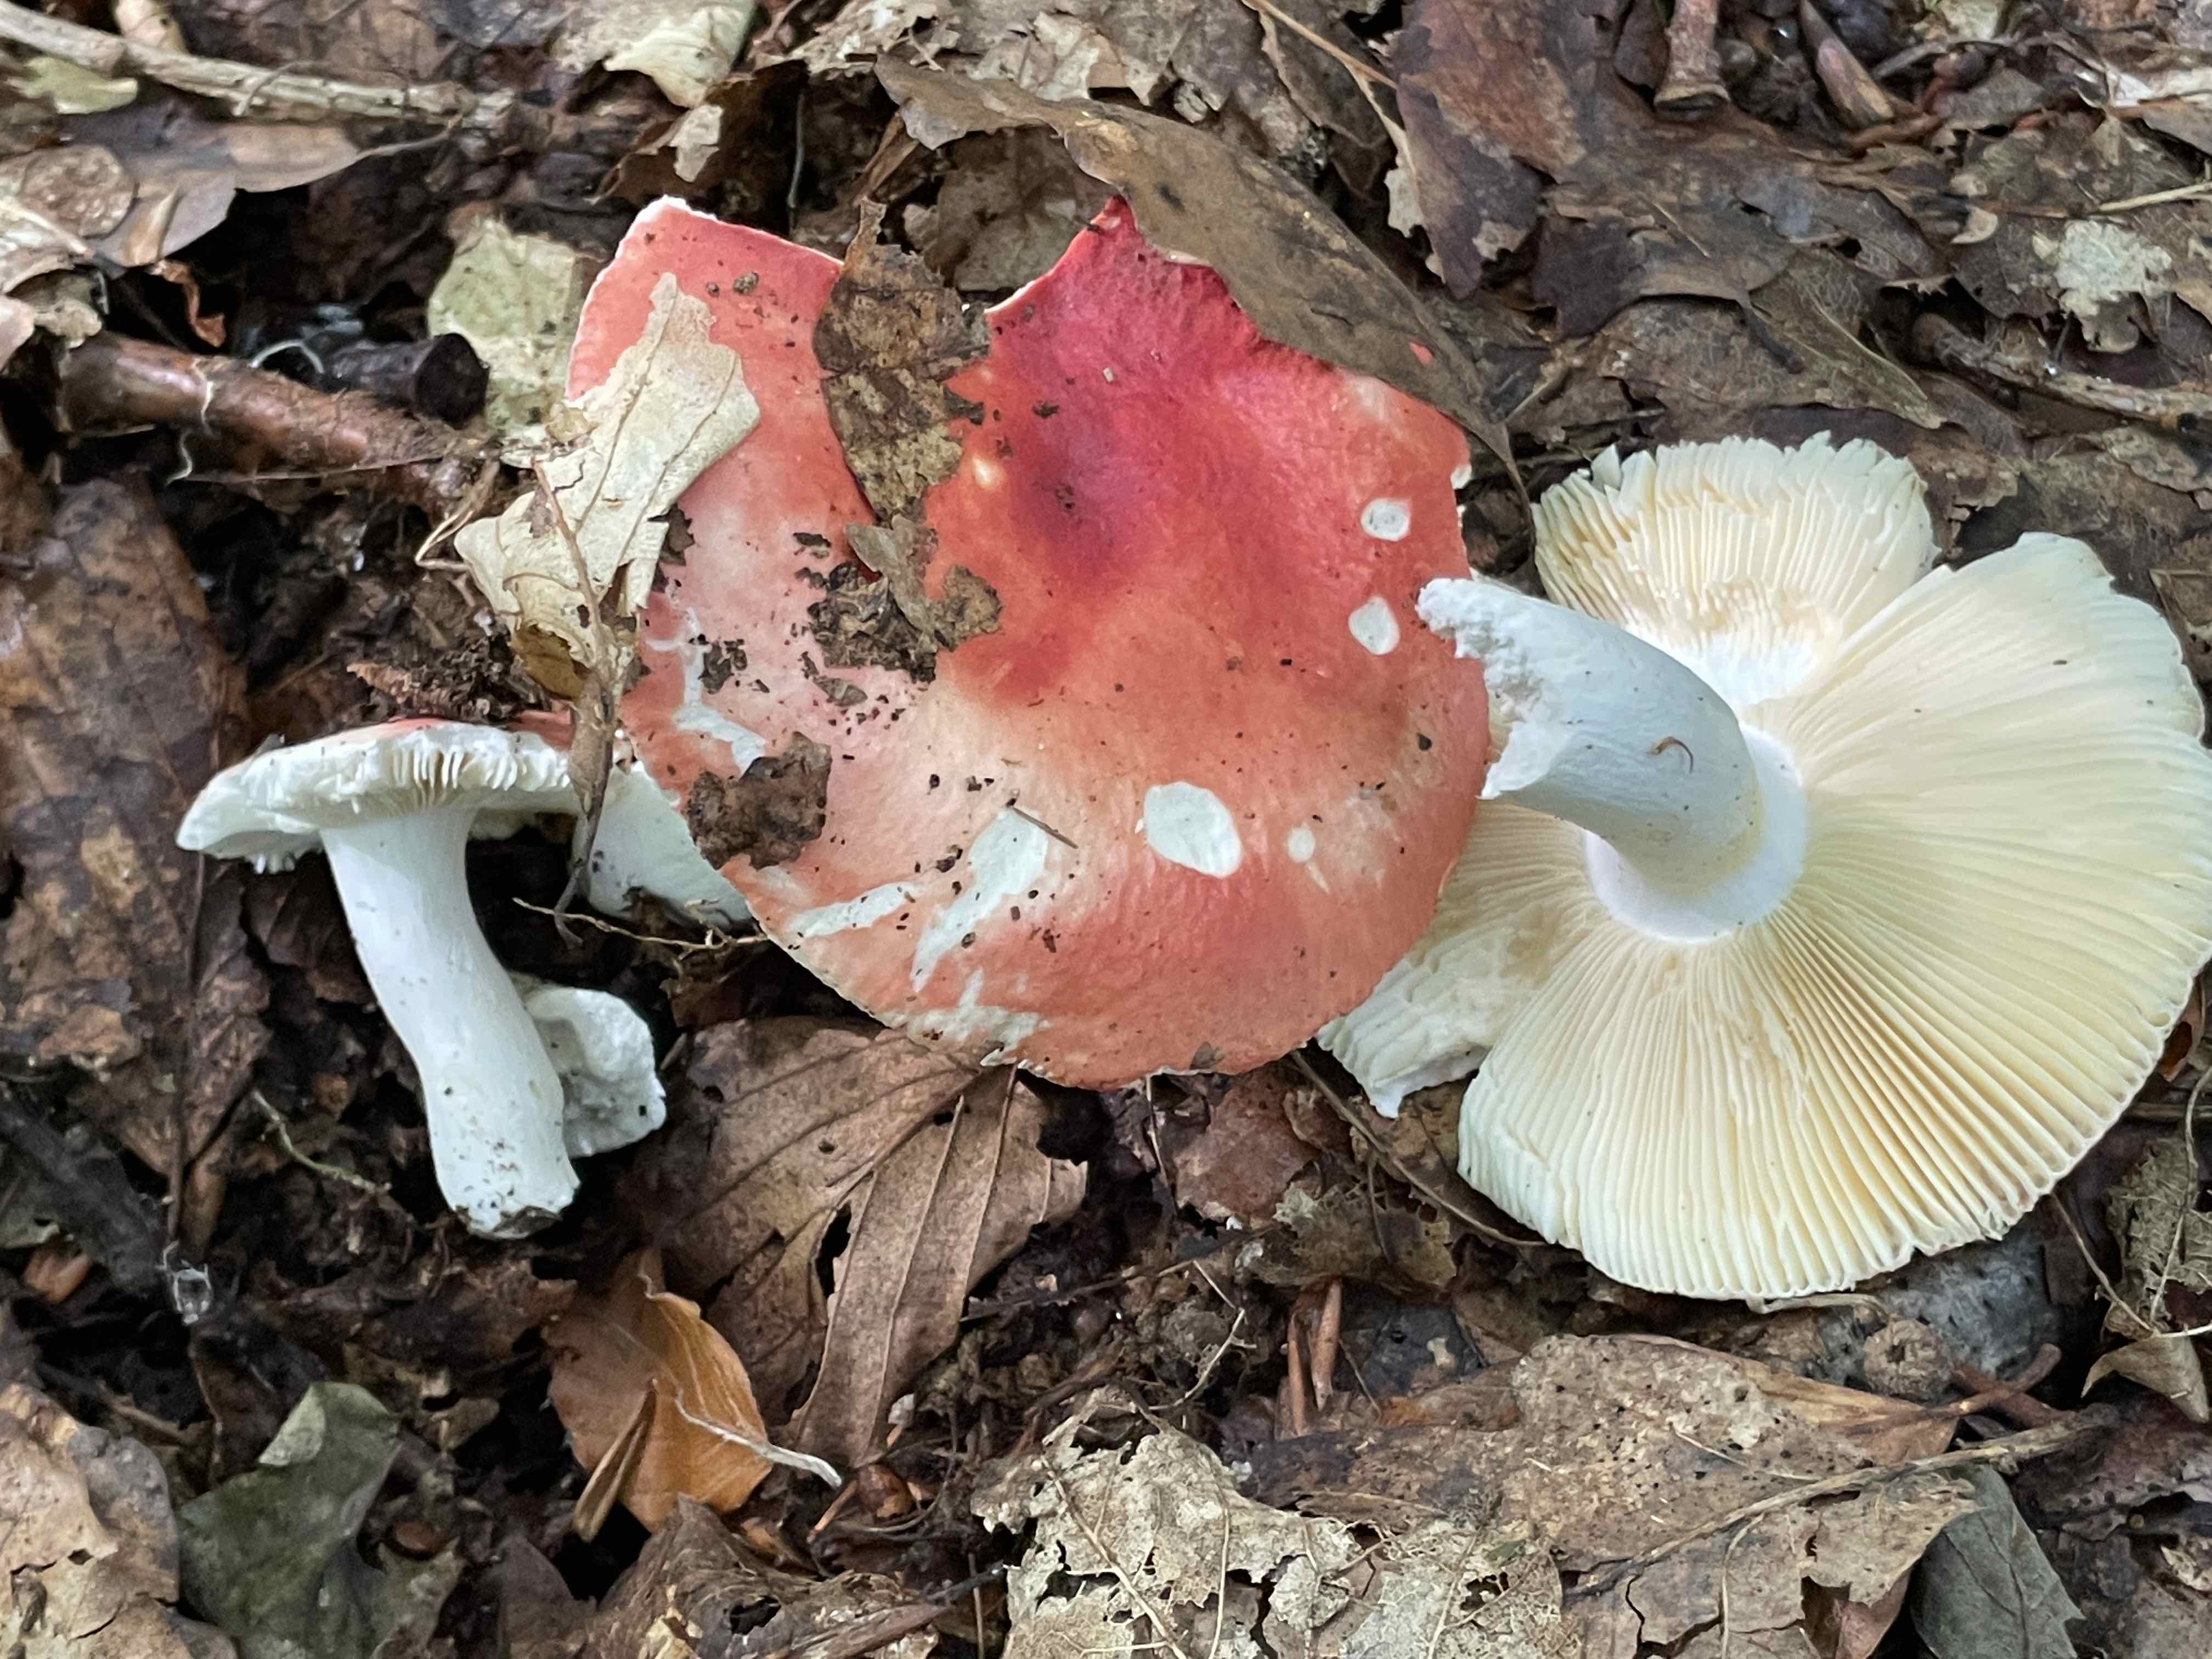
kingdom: Fungi
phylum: Basidiomycota
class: Agaricomycetes
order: Russulales
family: Russulaceae
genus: Russula
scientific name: Russula pseudointegra
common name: cinnoberrød skørhat
